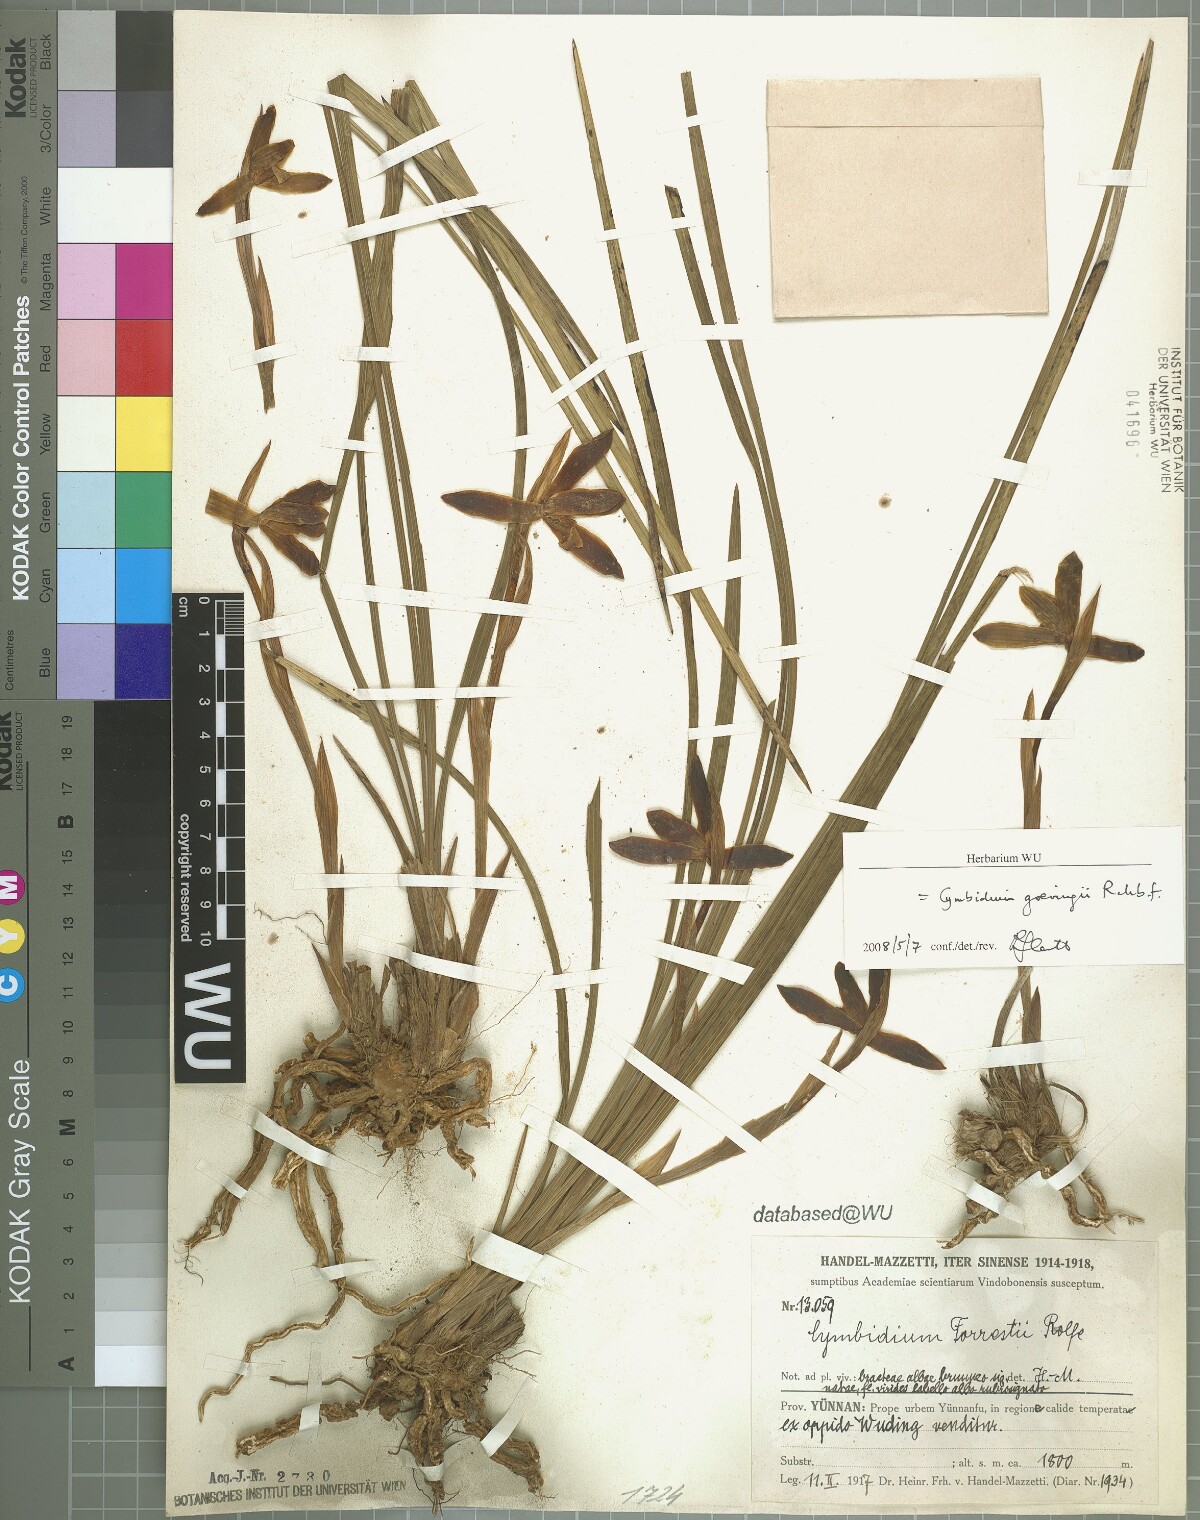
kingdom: Plantae
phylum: Tracheophyta
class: Liliopsida
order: Asparagales
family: Orchidaceae
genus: Cymbidium
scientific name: Cymbidium goeringii
